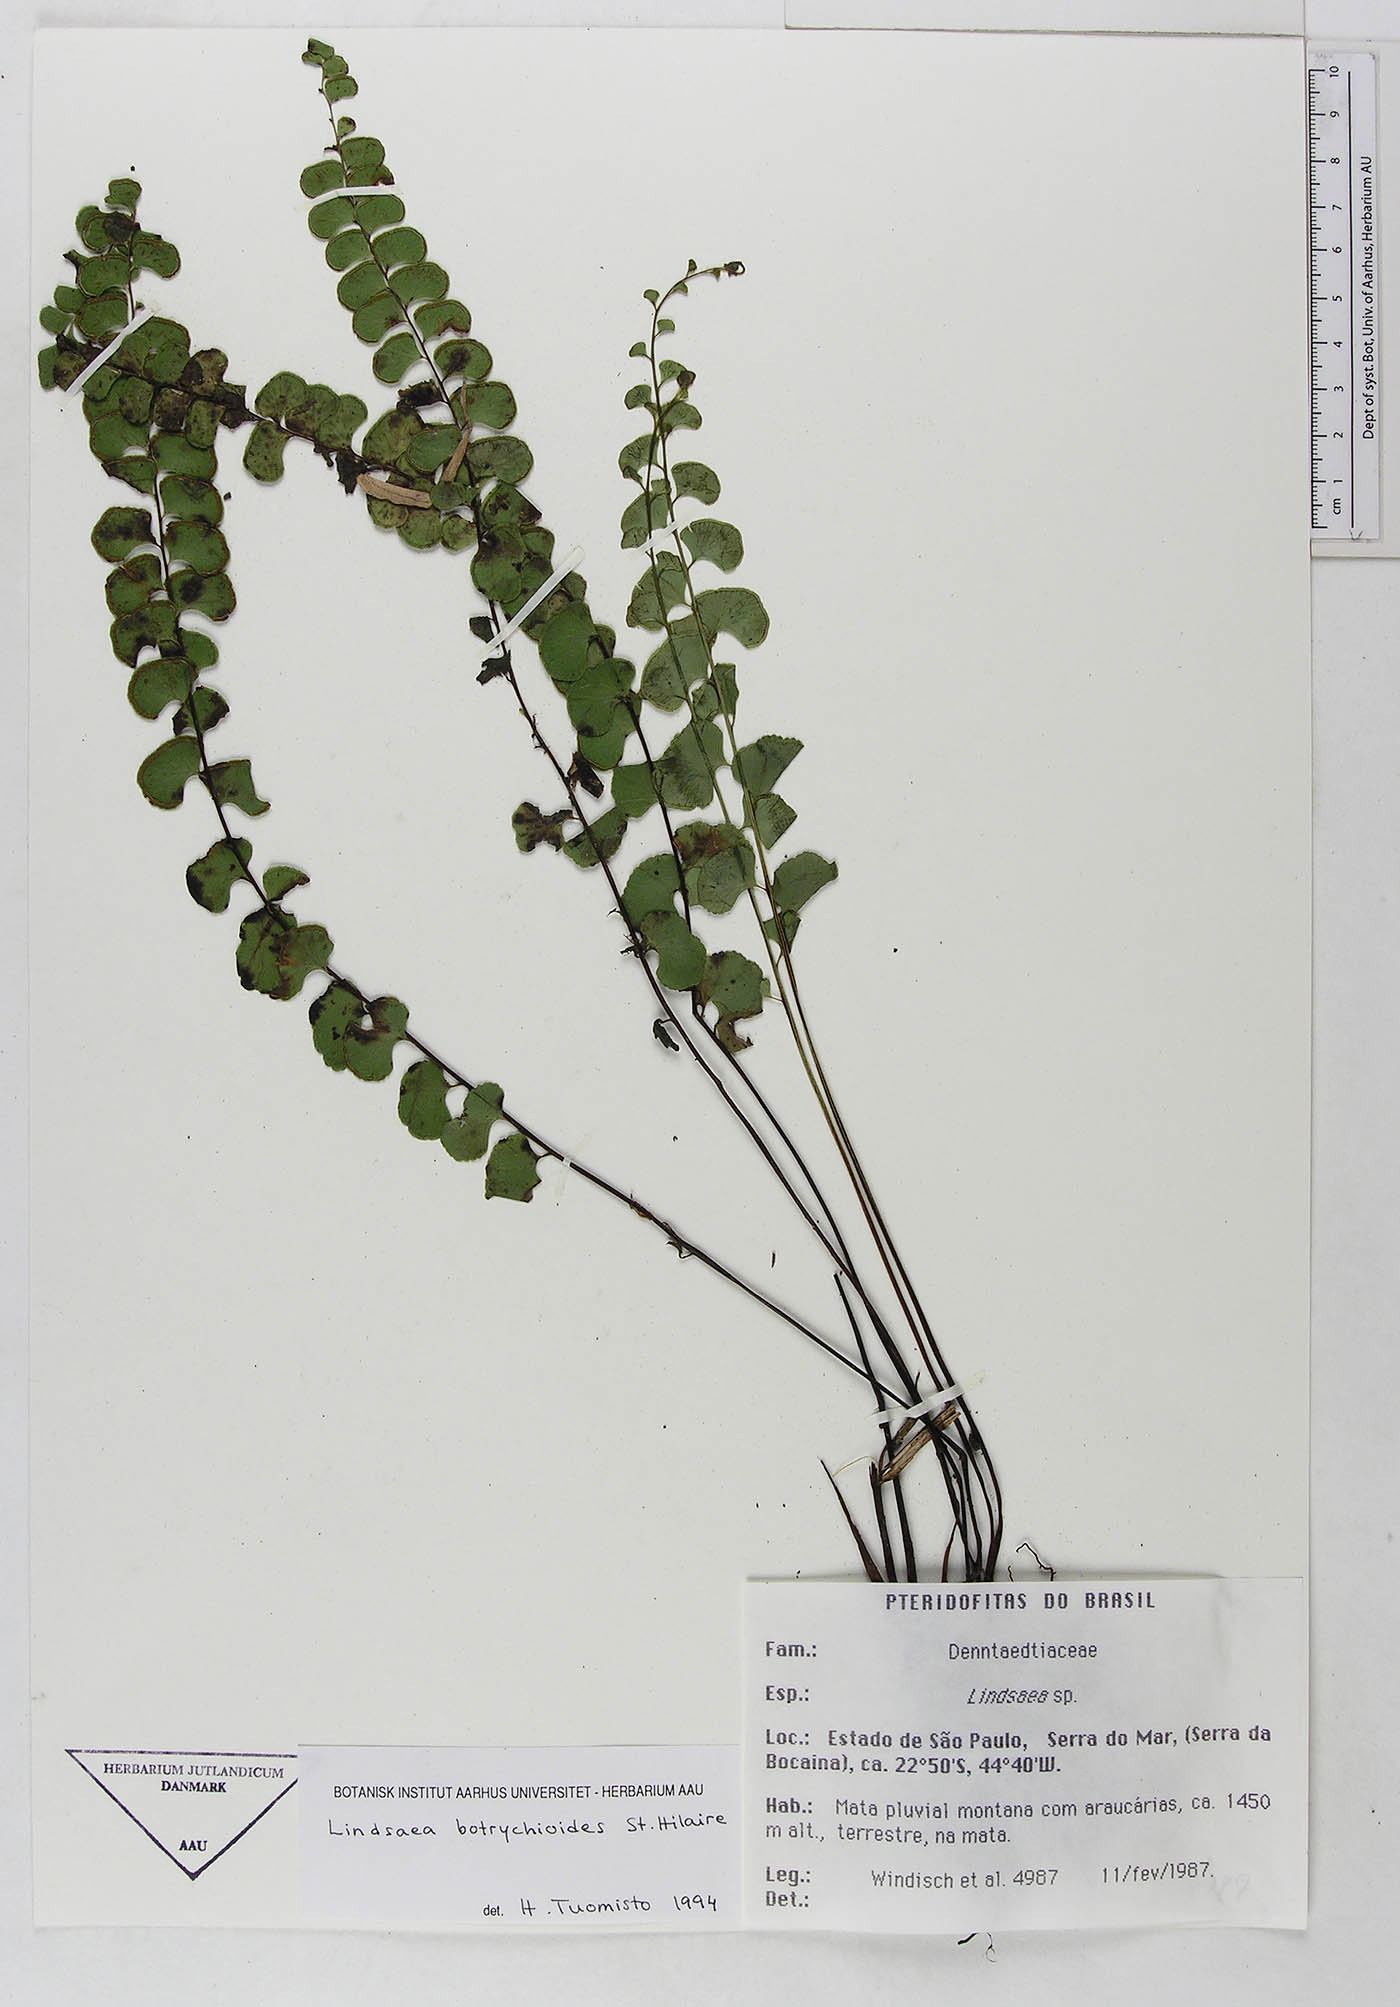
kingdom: Plantae
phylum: Tracheophyta
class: Polypodiopsida
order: Polypodiales
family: Dennstaedtiaceae
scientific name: Dennstaedtiaceae
